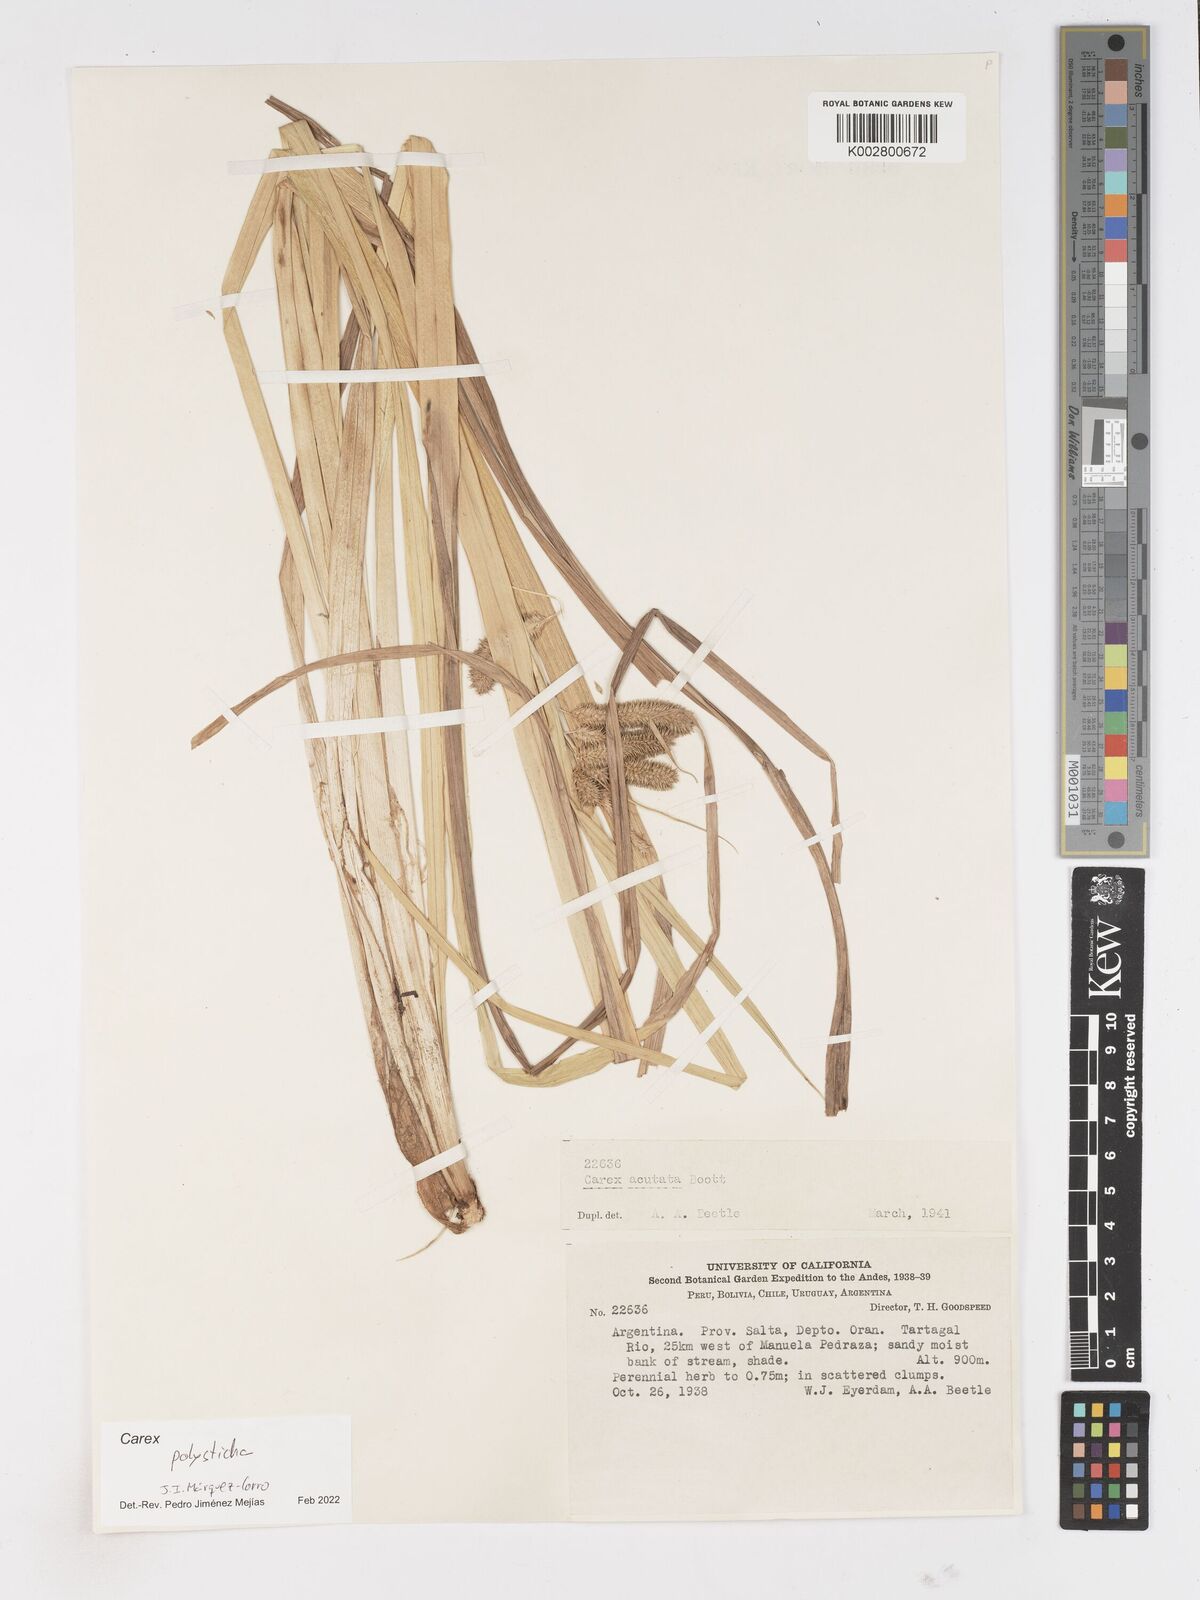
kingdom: Plantae
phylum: Tracheophyta
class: Liliopsida
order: Poales
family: Cyperaceae
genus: Carex
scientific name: Carex polysticha
